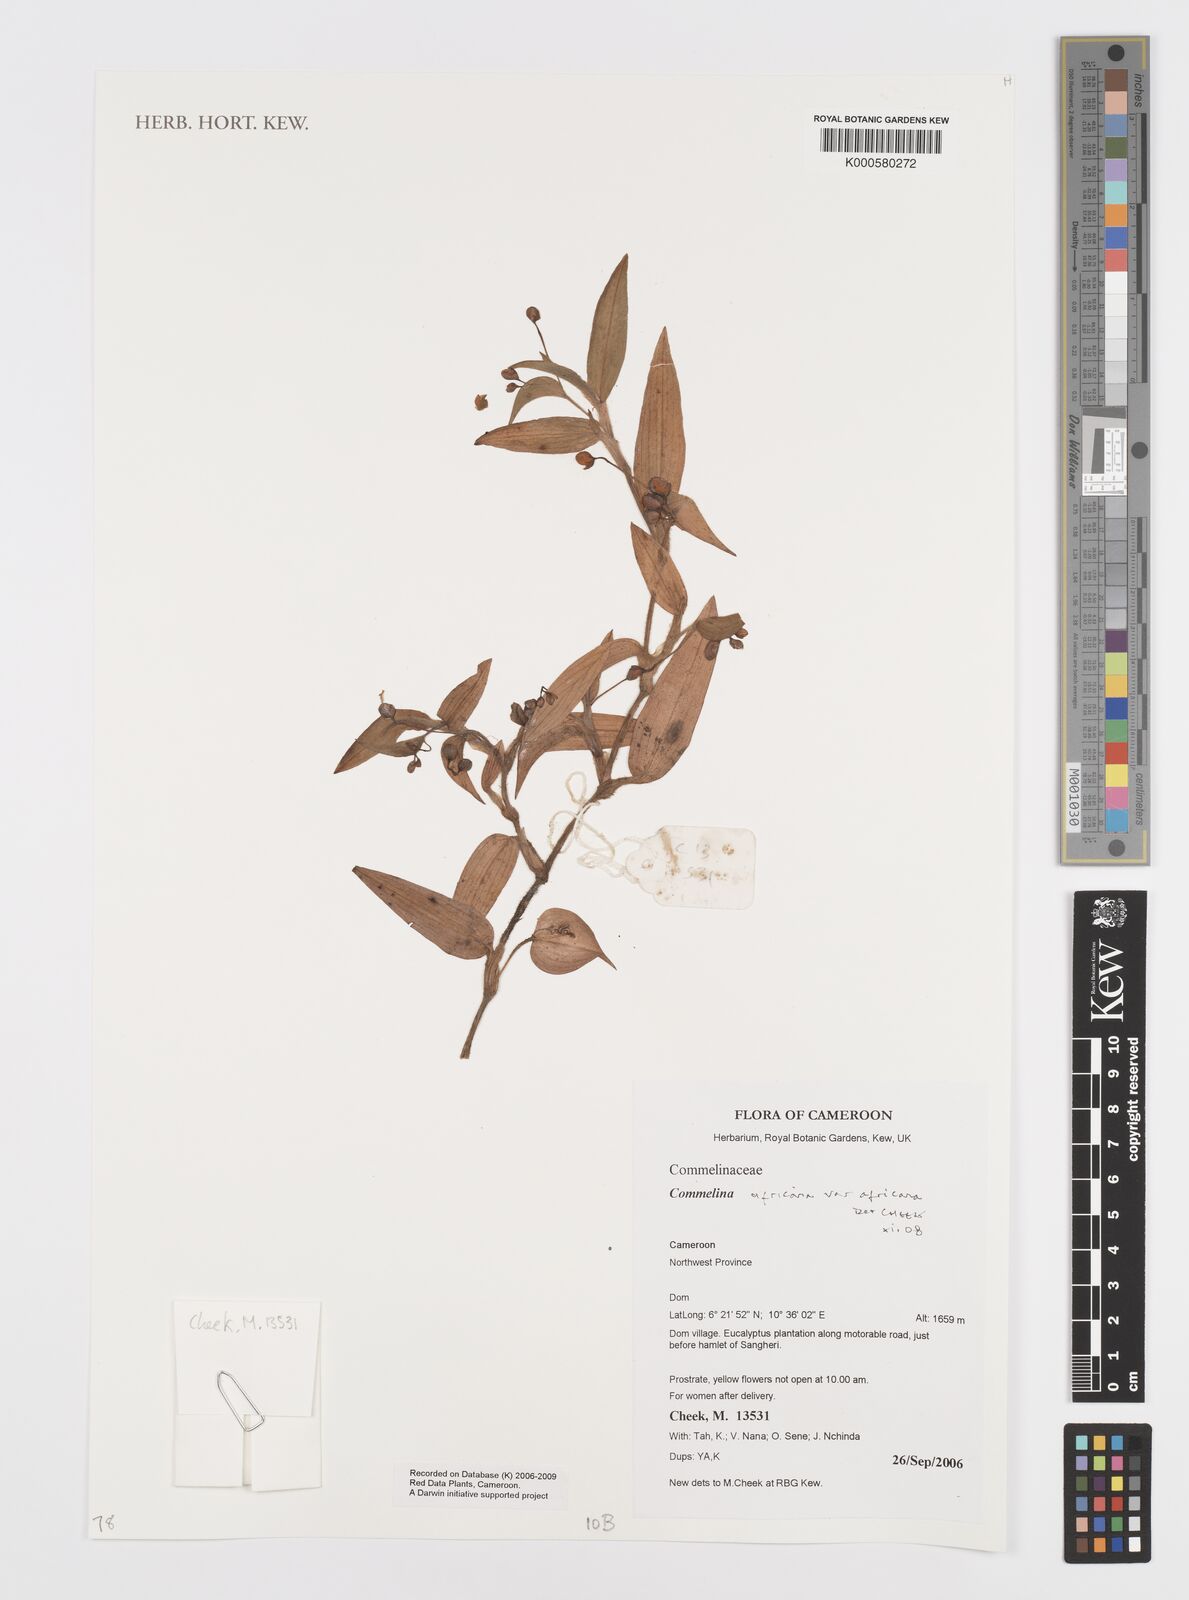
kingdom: Plantae
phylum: Tracheophyta
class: Liliopsida
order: Commelinales
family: Commelinaceae
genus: Commelina
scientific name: Commelina africana
